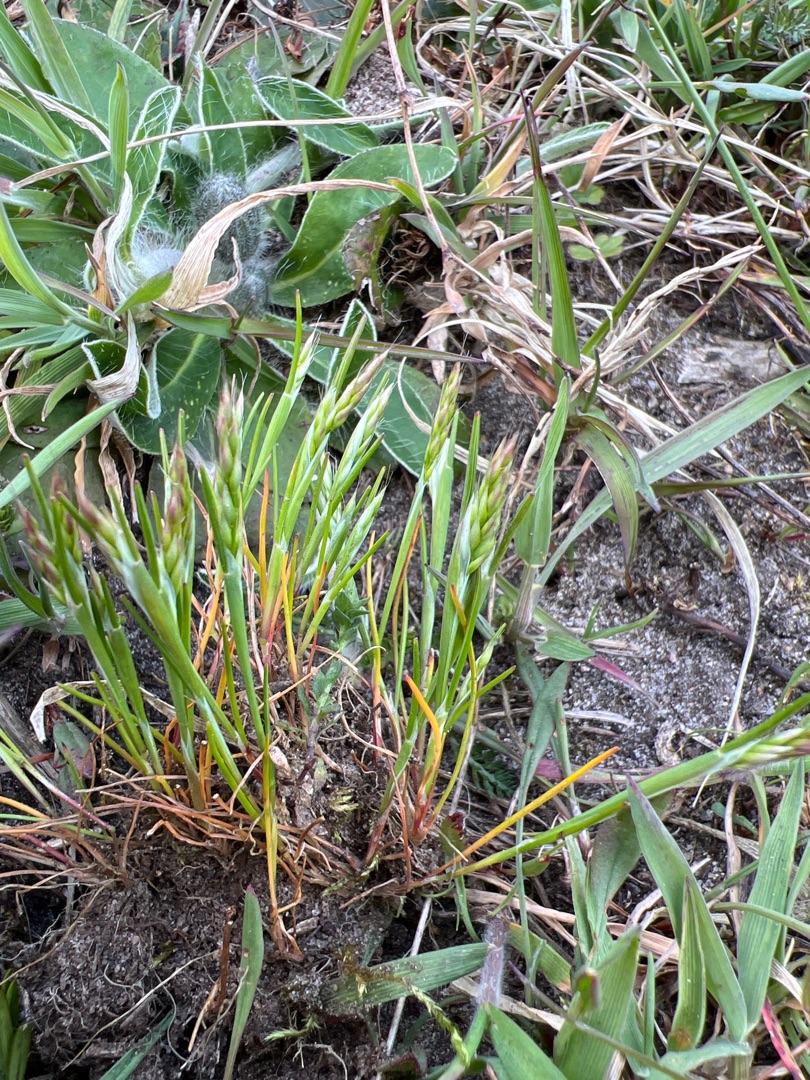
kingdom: Plantae
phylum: Tracheophyta
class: Liliopsida
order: Poales
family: Poaceae
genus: Aira
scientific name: Aira praecox
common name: Tidlig dværgbunke
